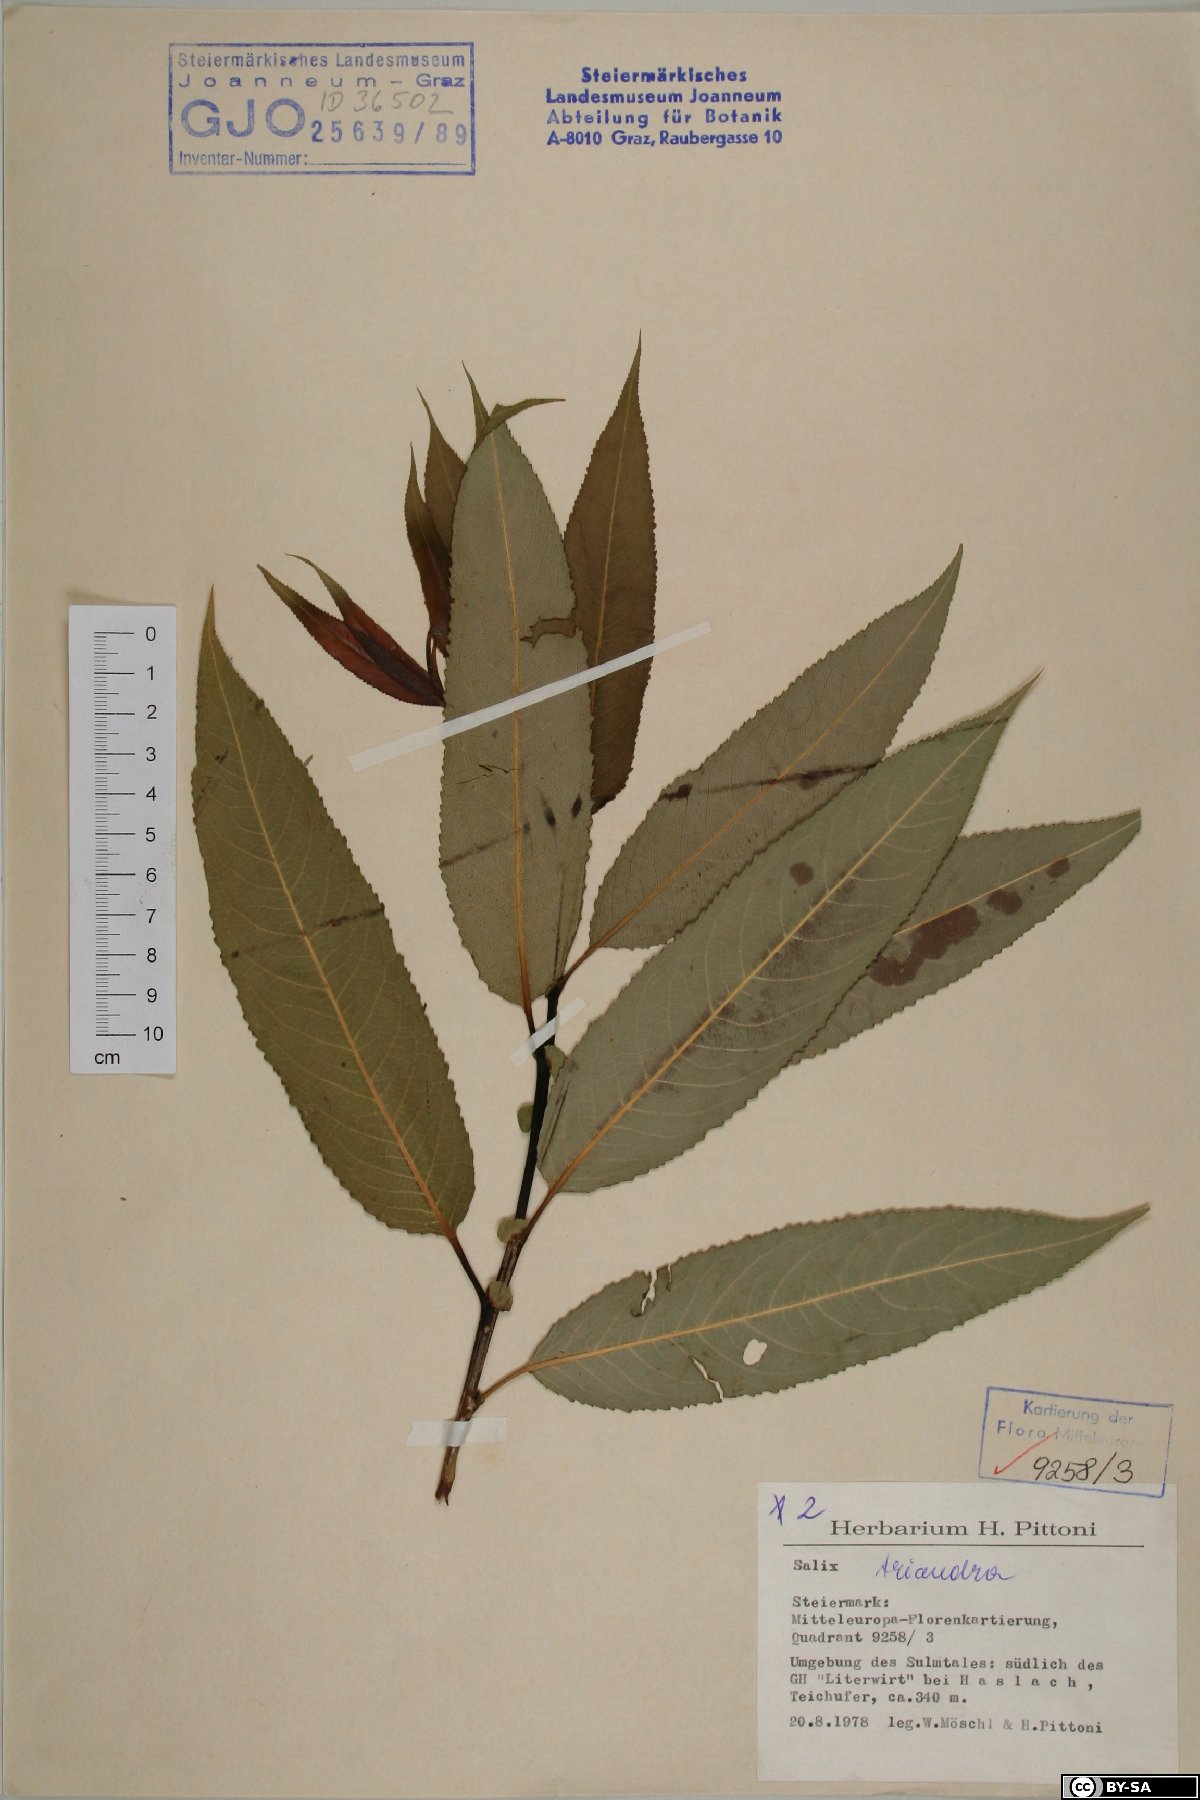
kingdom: Plantae
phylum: Tracheophyta
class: Magnoliopsida
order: Malpighiales
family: Salicaceae
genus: Salix
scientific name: Salix triandra
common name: Almond willow
